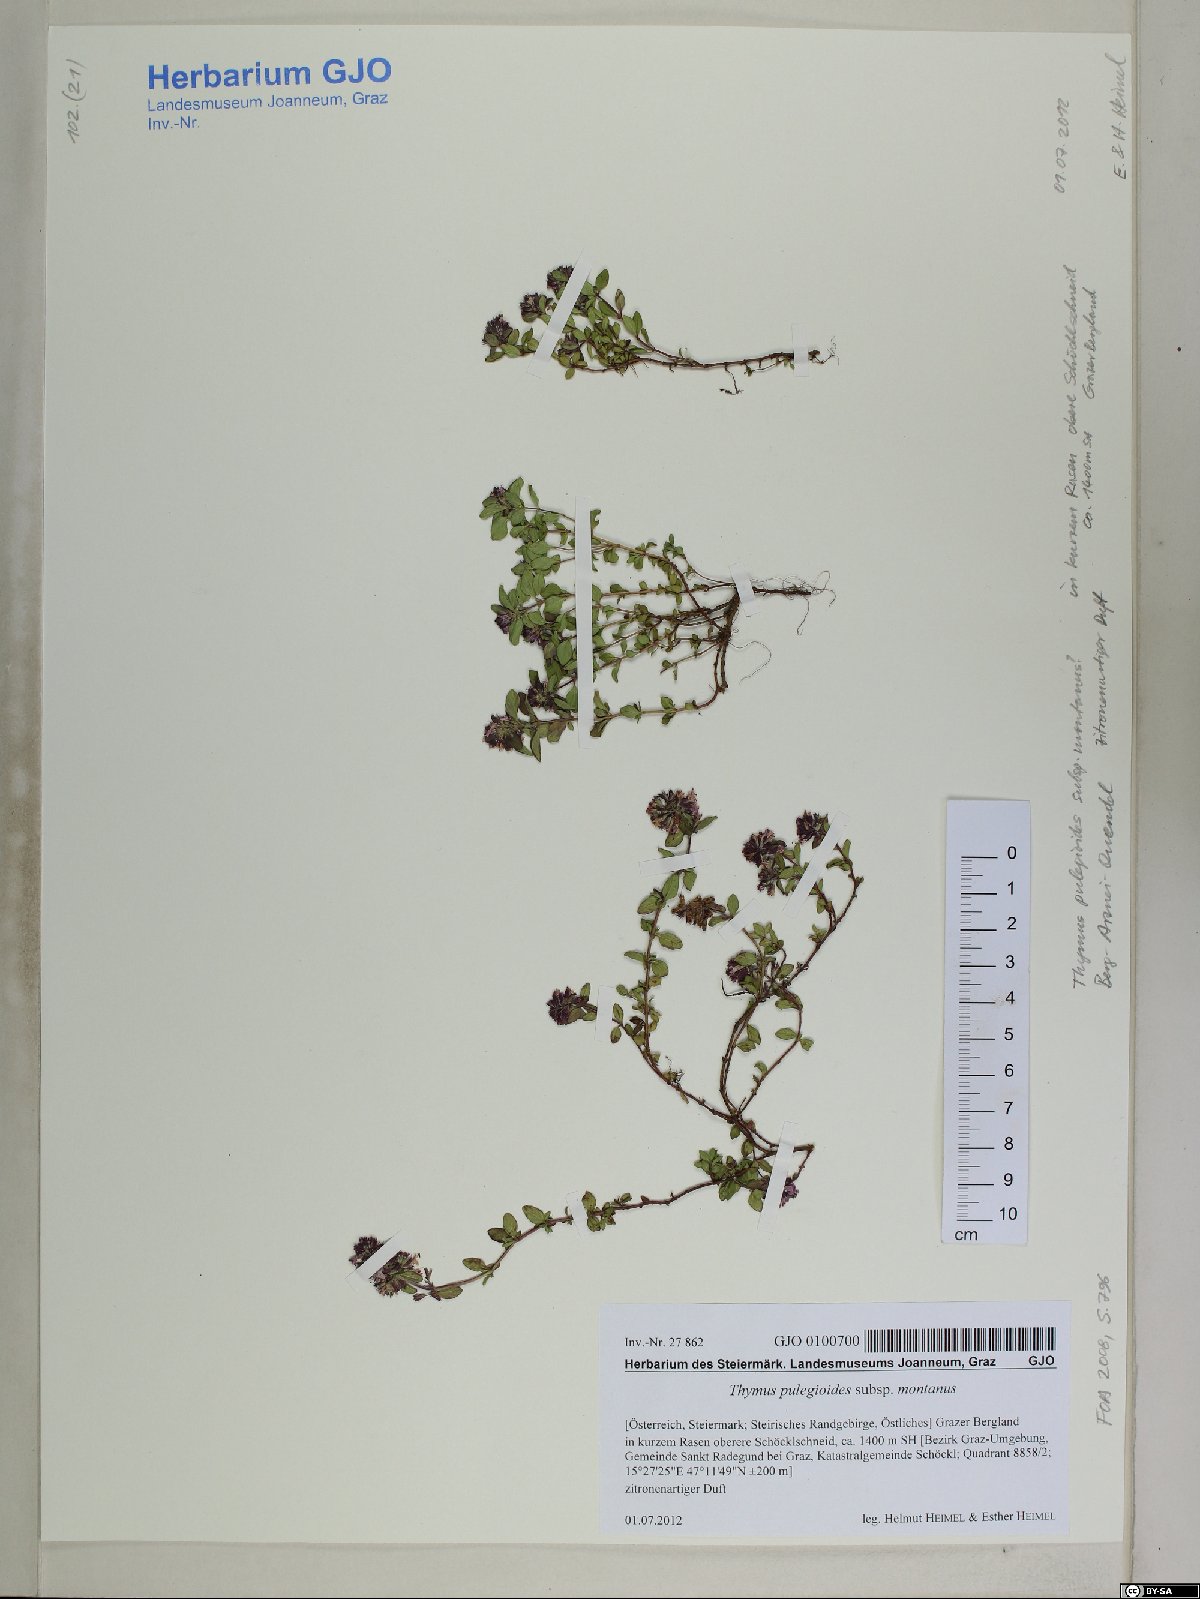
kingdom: Plantae
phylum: Tracheophyta
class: Magnoliopsida
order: Lamiales
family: Lamiaceae
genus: Thymus
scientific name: Thymus pulegioides
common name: Large thyme
